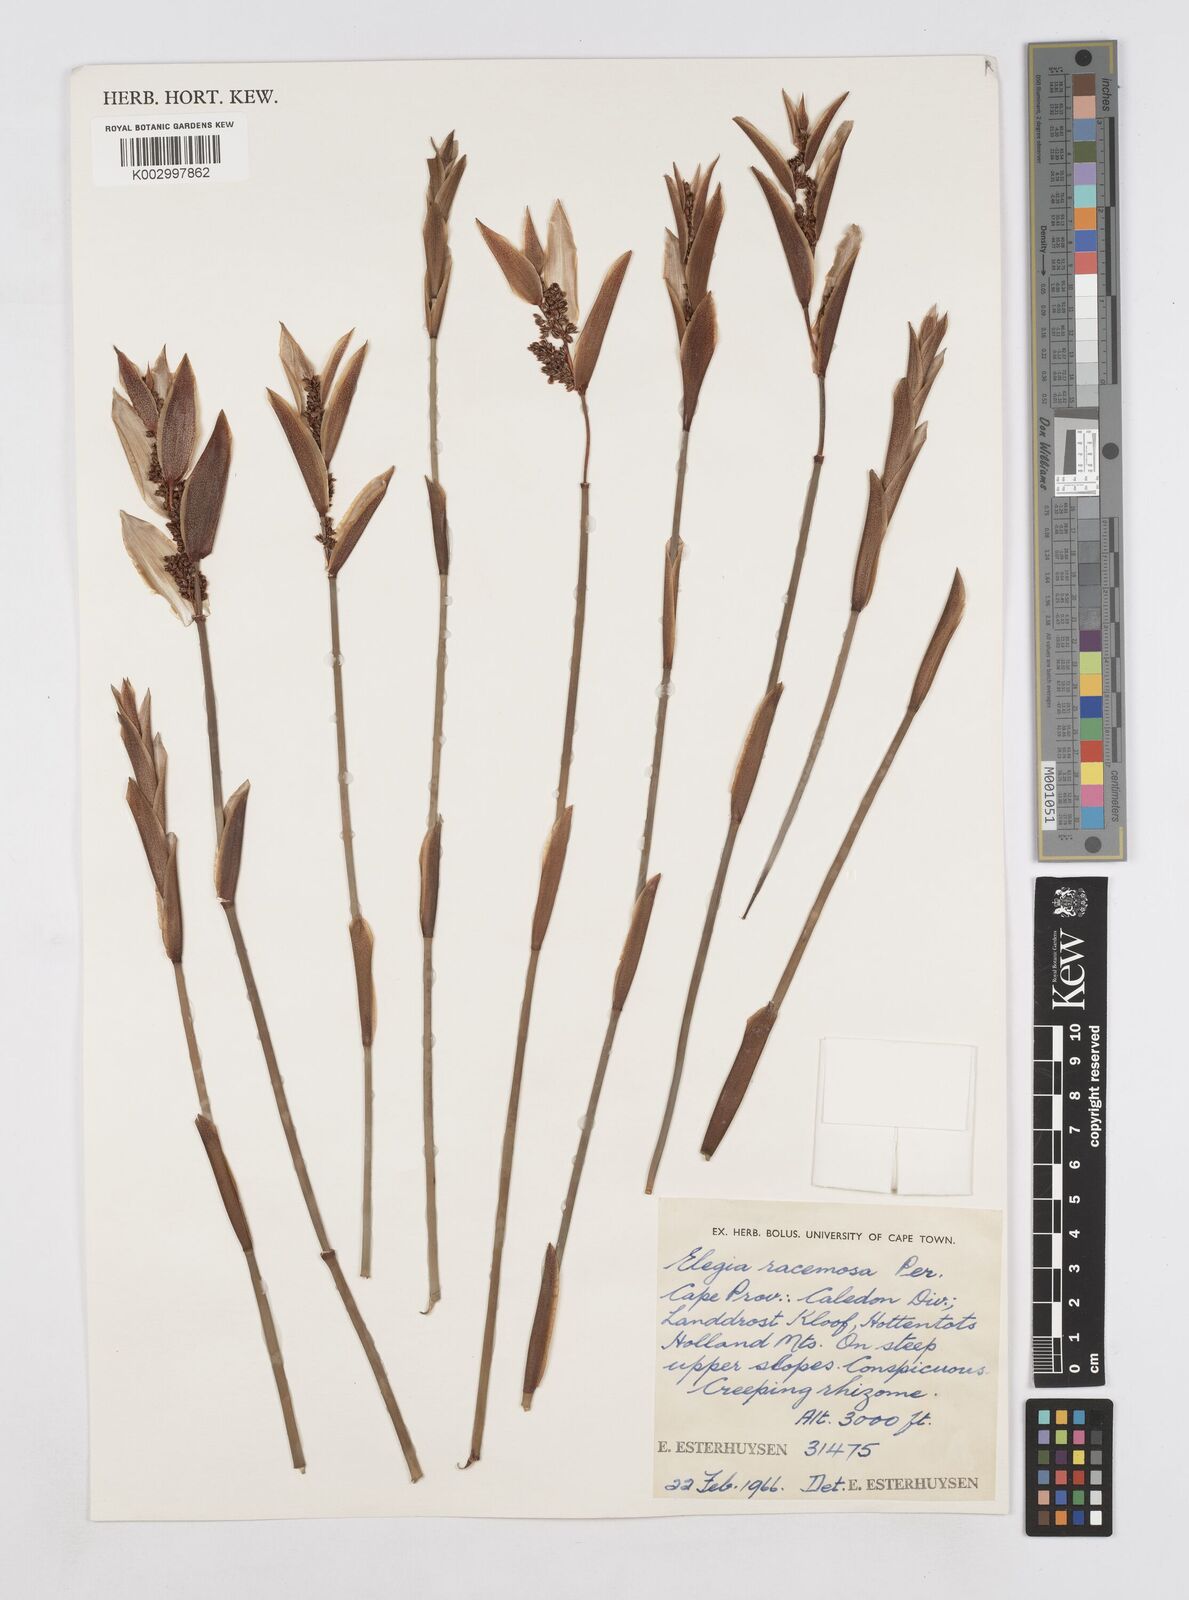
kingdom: Plantae
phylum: Tracheophyta
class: Liliopsida
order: Poales
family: Restionaceae
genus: Elegia
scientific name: Elegia racemosa
